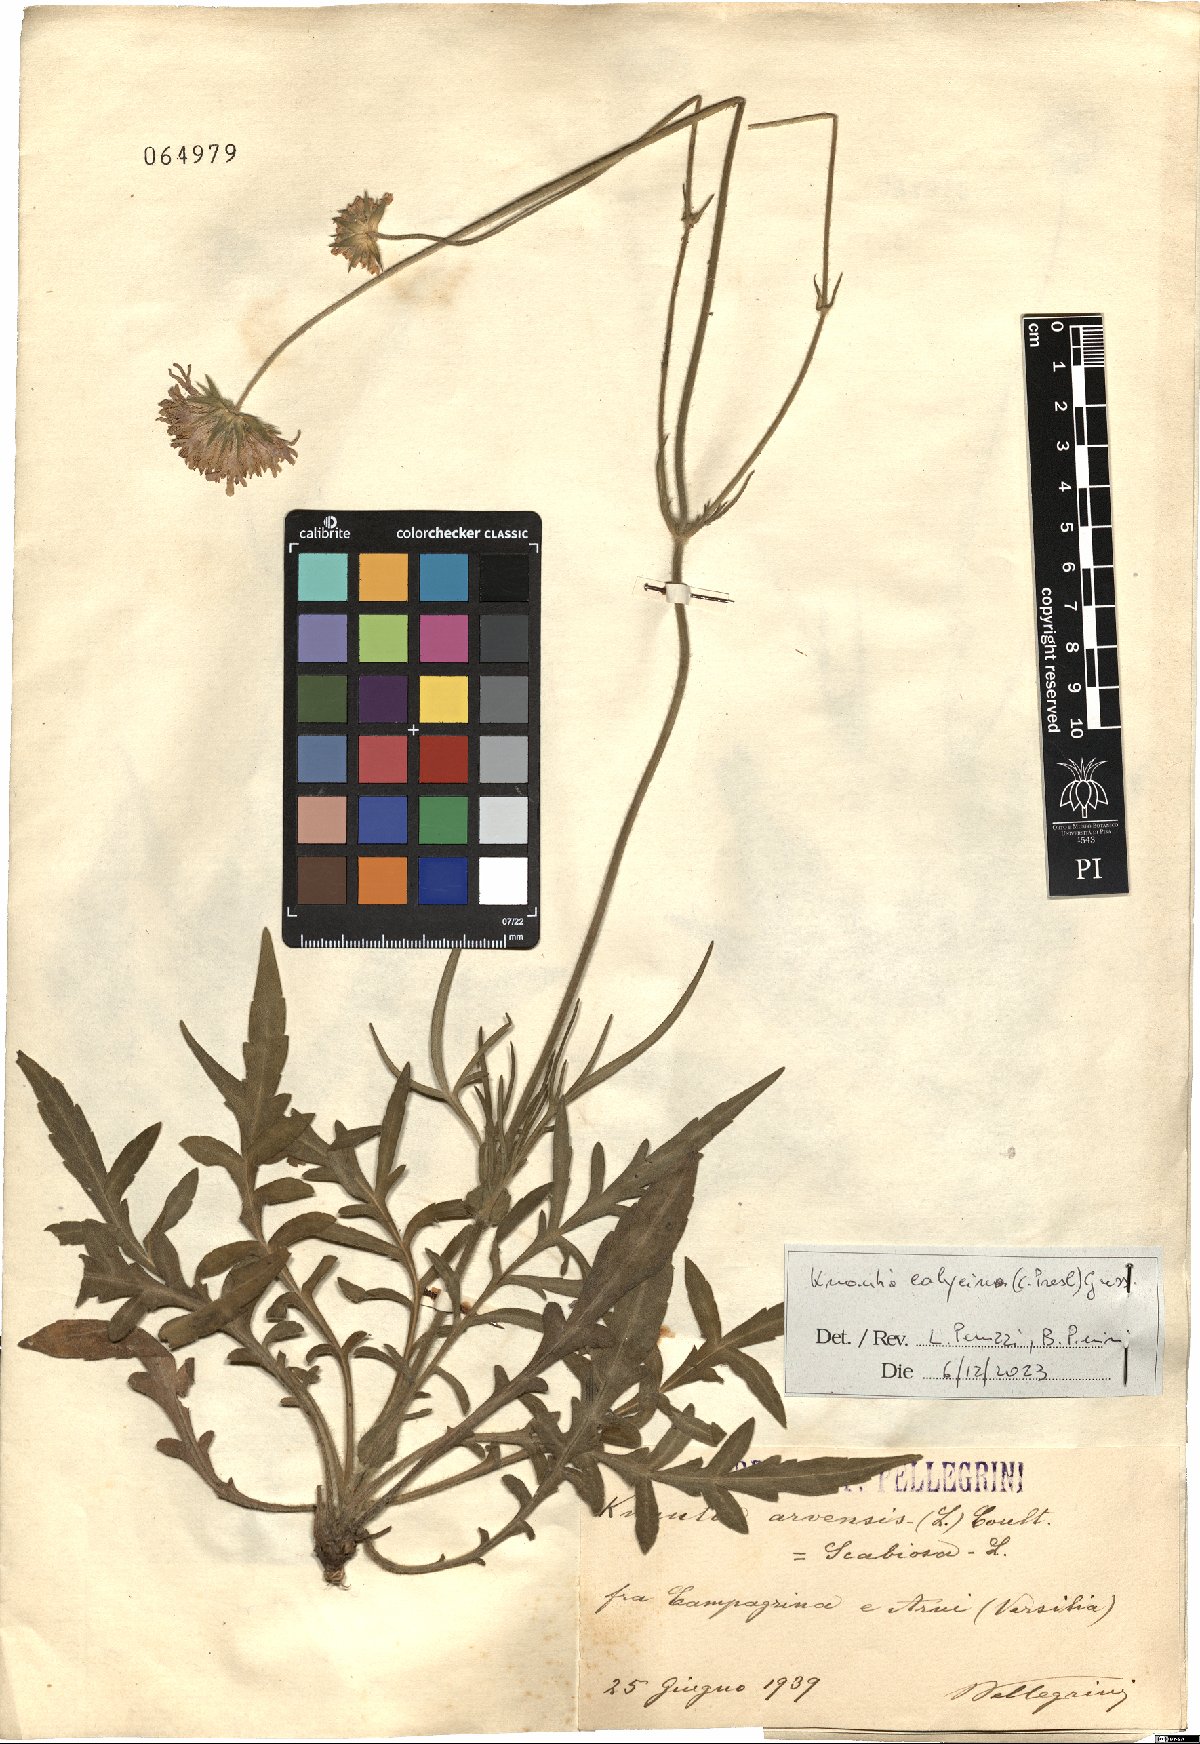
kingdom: Plantae
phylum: Tracheophyta
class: Magnoliopsida
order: Dipsacales
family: Caprifoliaceae
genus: Knautia
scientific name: Knautia calycina
